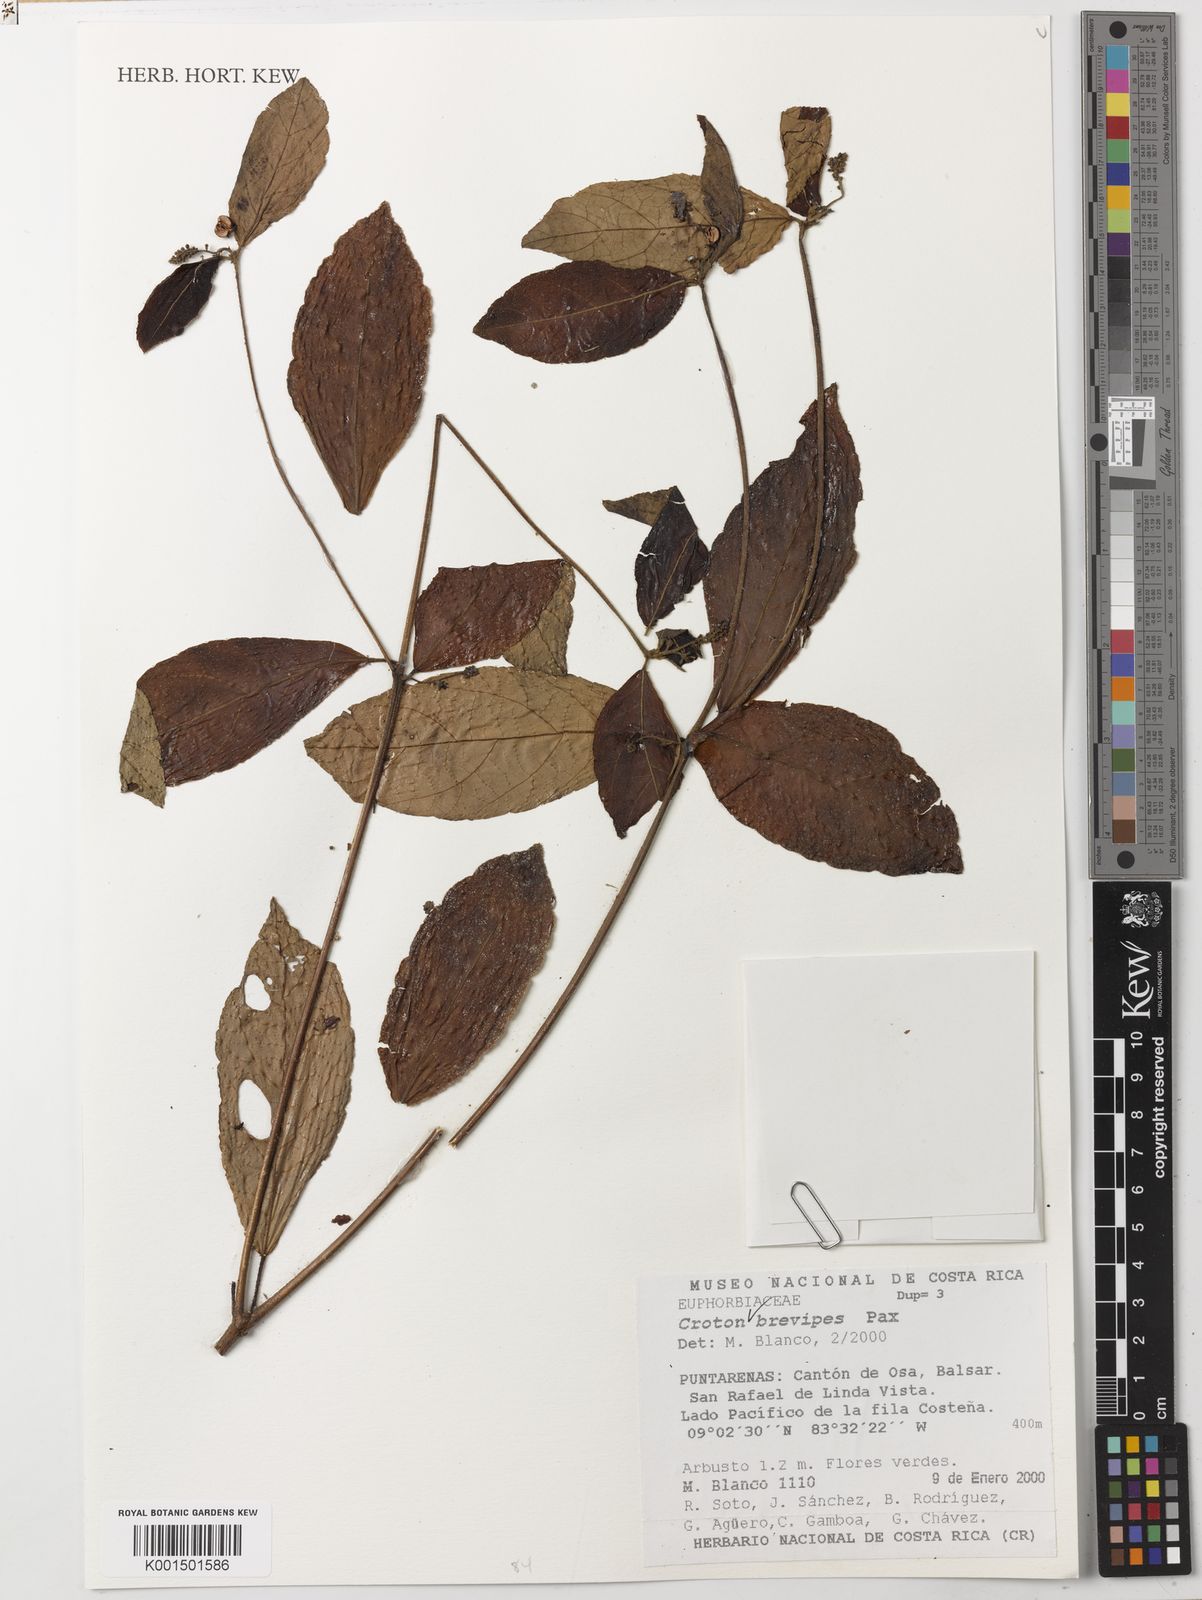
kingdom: Plantae
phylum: Tracheophyta
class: Magnoliopsida
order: Malpighiales
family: Euphorbiaceae
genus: Croton
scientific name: Croton brevipes
